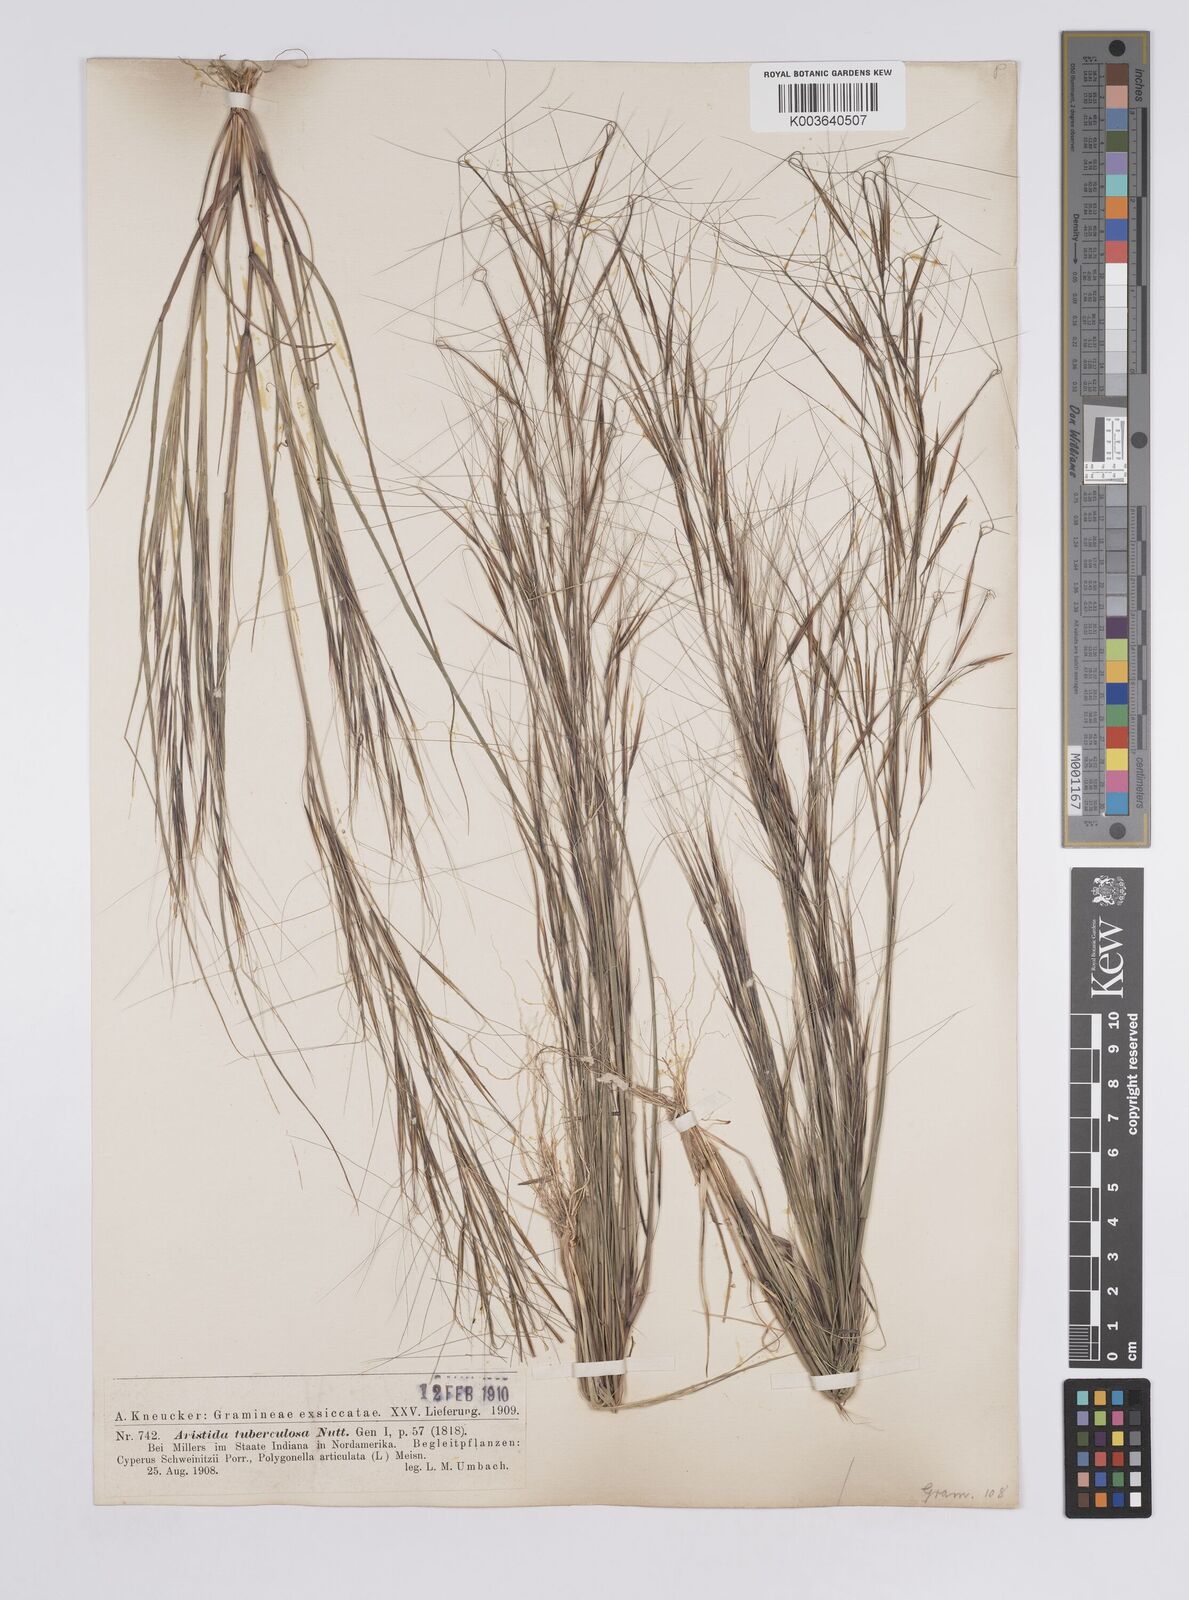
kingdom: Plantae
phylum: Tracheophyta
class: Liliopsida
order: Poales
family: Poaceae
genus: Aristida
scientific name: Aristida tuberculosa
